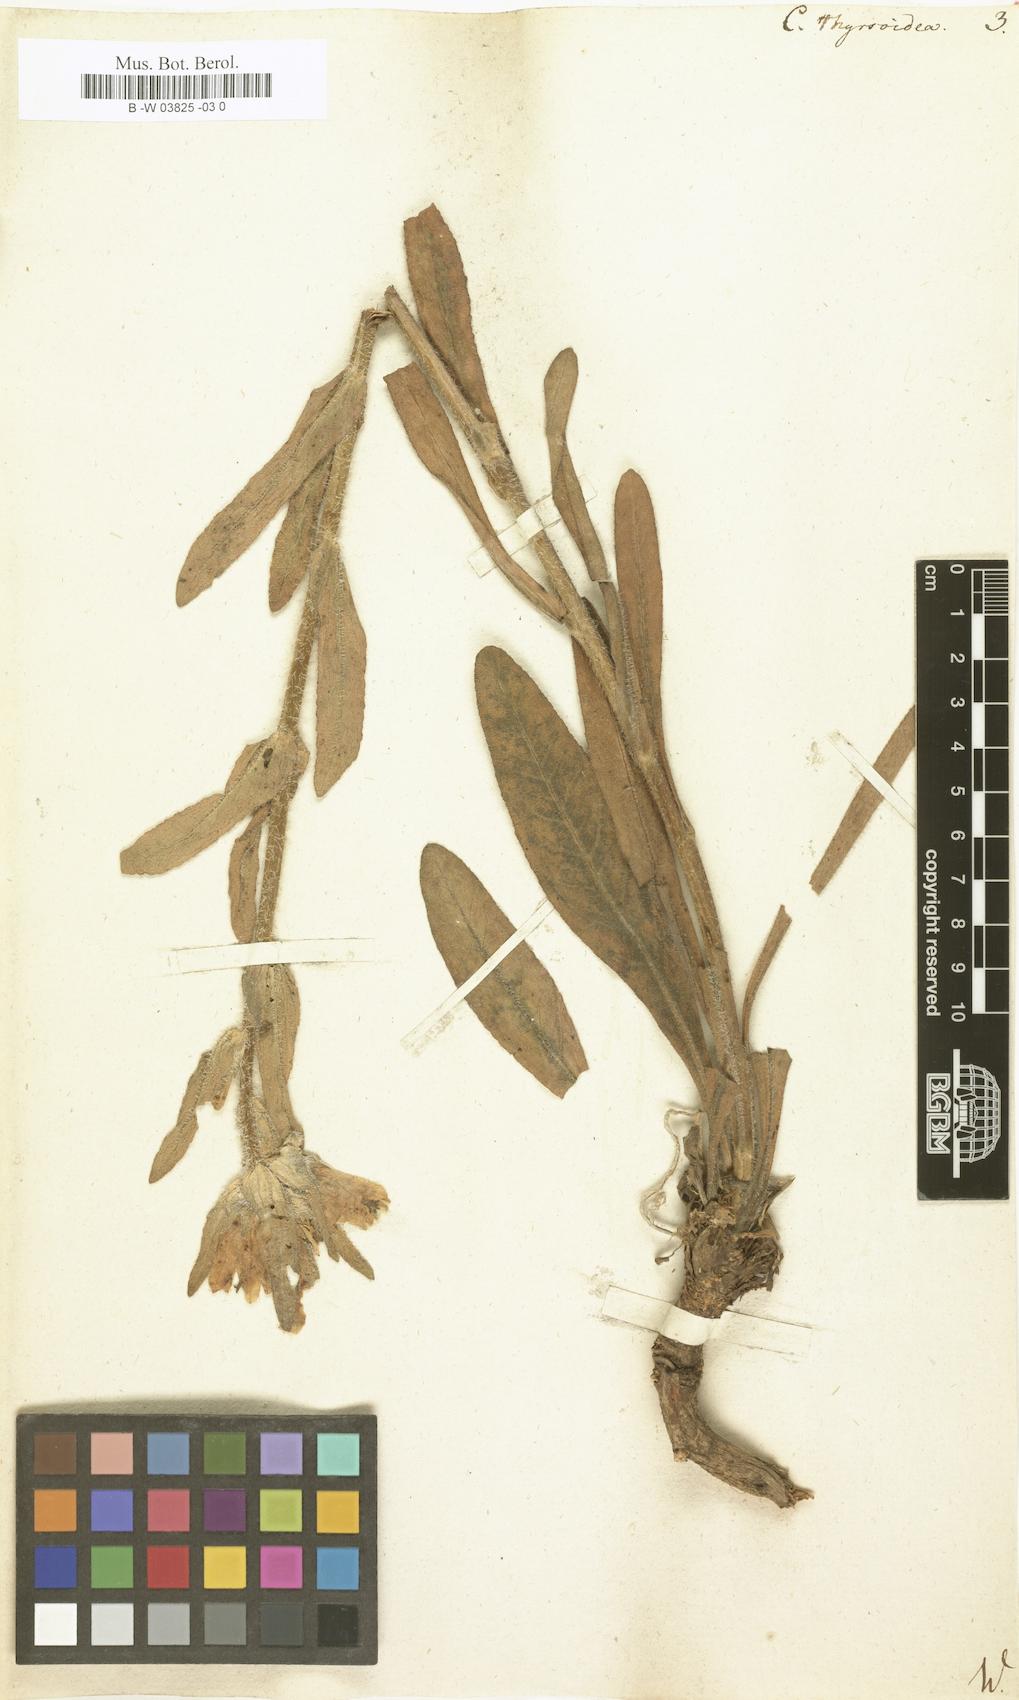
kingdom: Plantae
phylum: Tracheophyta
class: Magnoliopsida
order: Asterales
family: Campanulaceae
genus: Campanula
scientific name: Campanula speciosa
